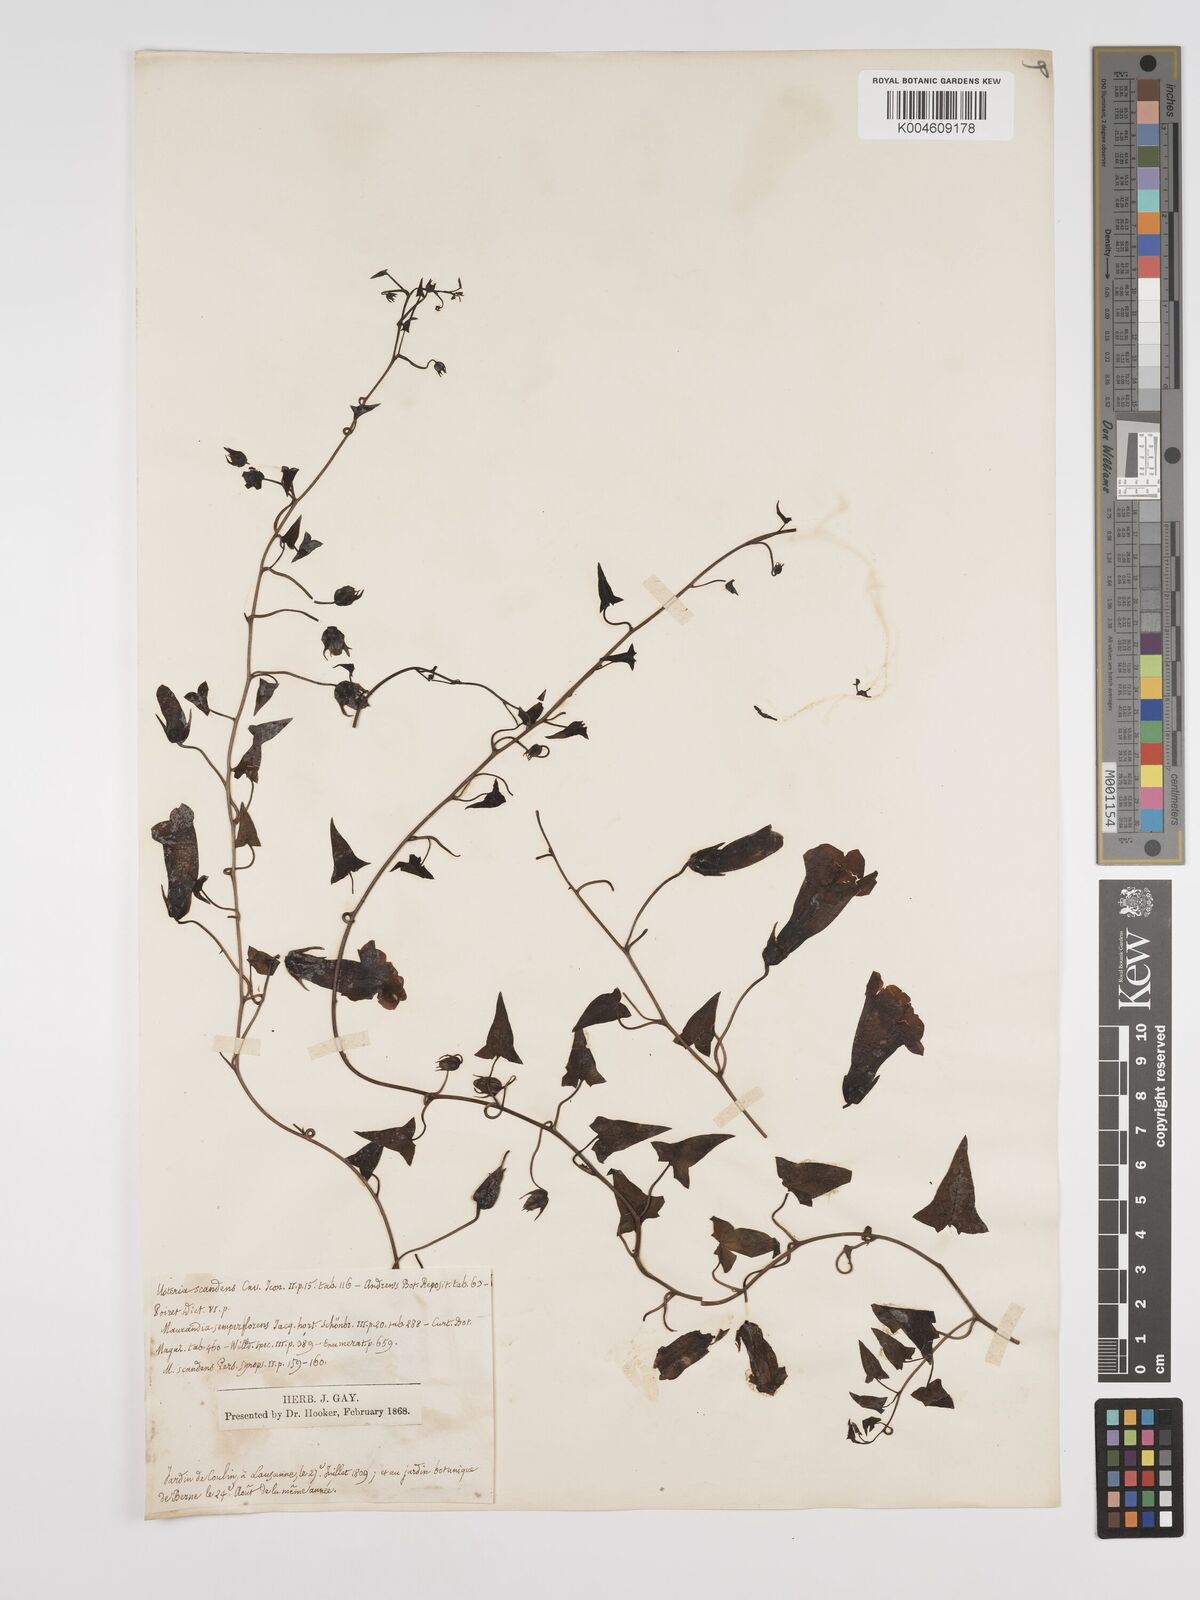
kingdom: Plantae
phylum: Tracheophyta
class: Magnoliopsida
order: Lamiales
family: Plantaginaceae
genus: Maurandya
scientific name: Maurandya scandens
